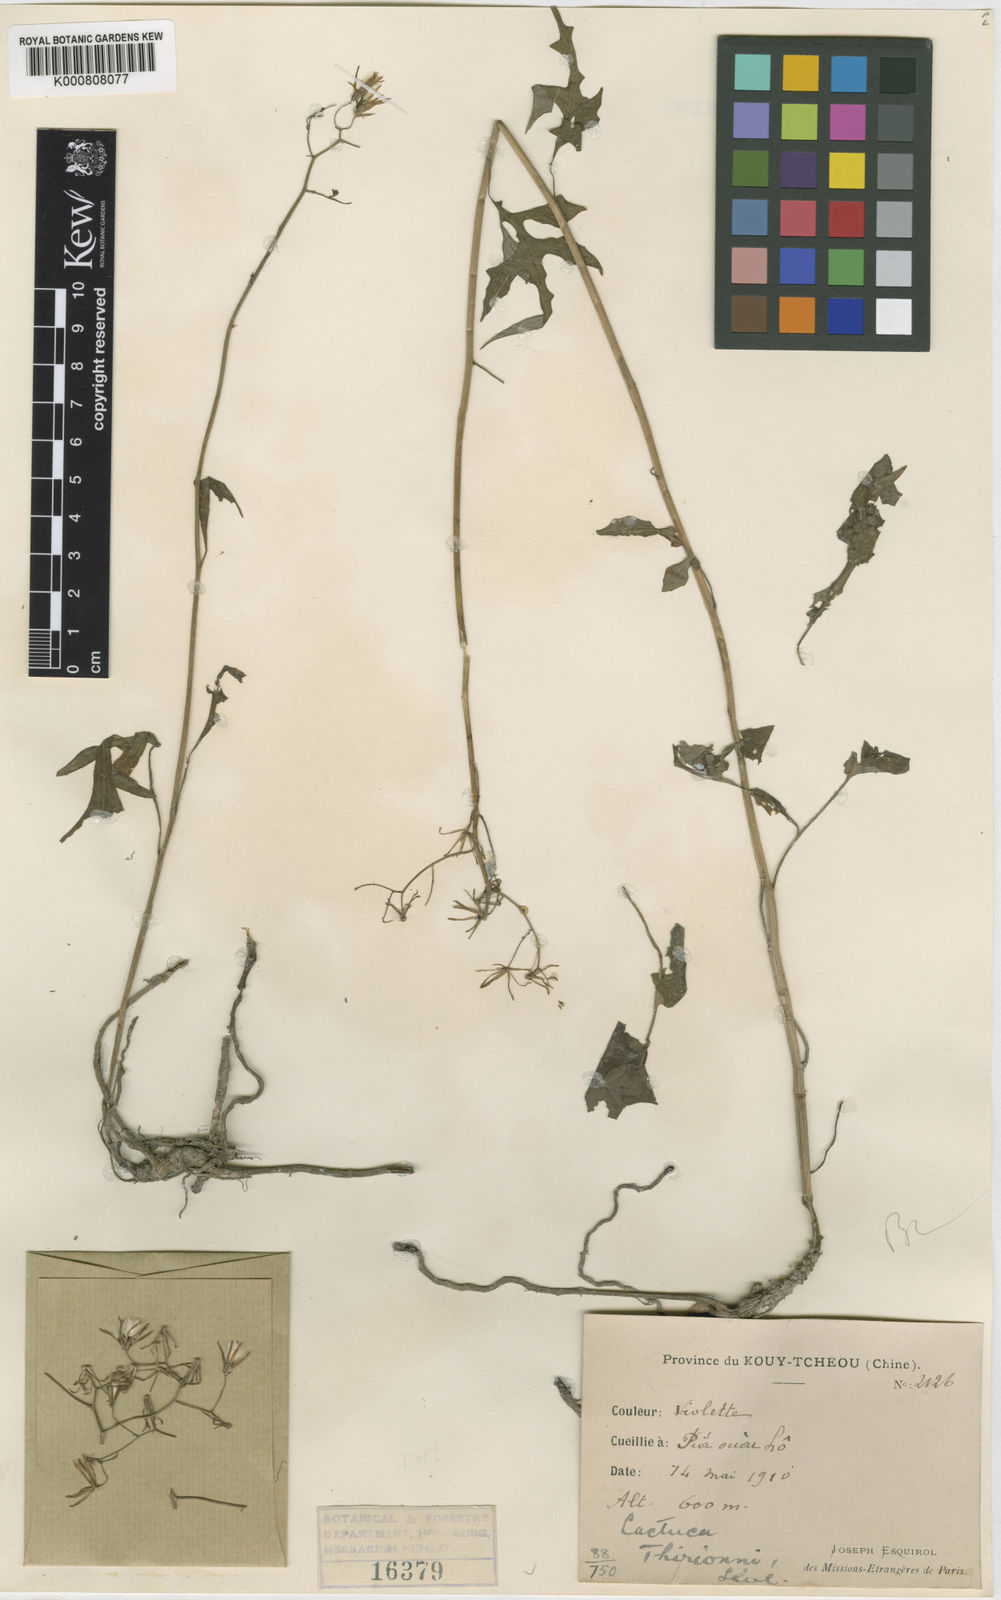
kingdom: Plantae
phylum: Tracheophyta
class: Magnoliopsida
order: Asterales
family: Asteraceae
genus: Paraprenanthes
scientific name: Paraprenanthes
